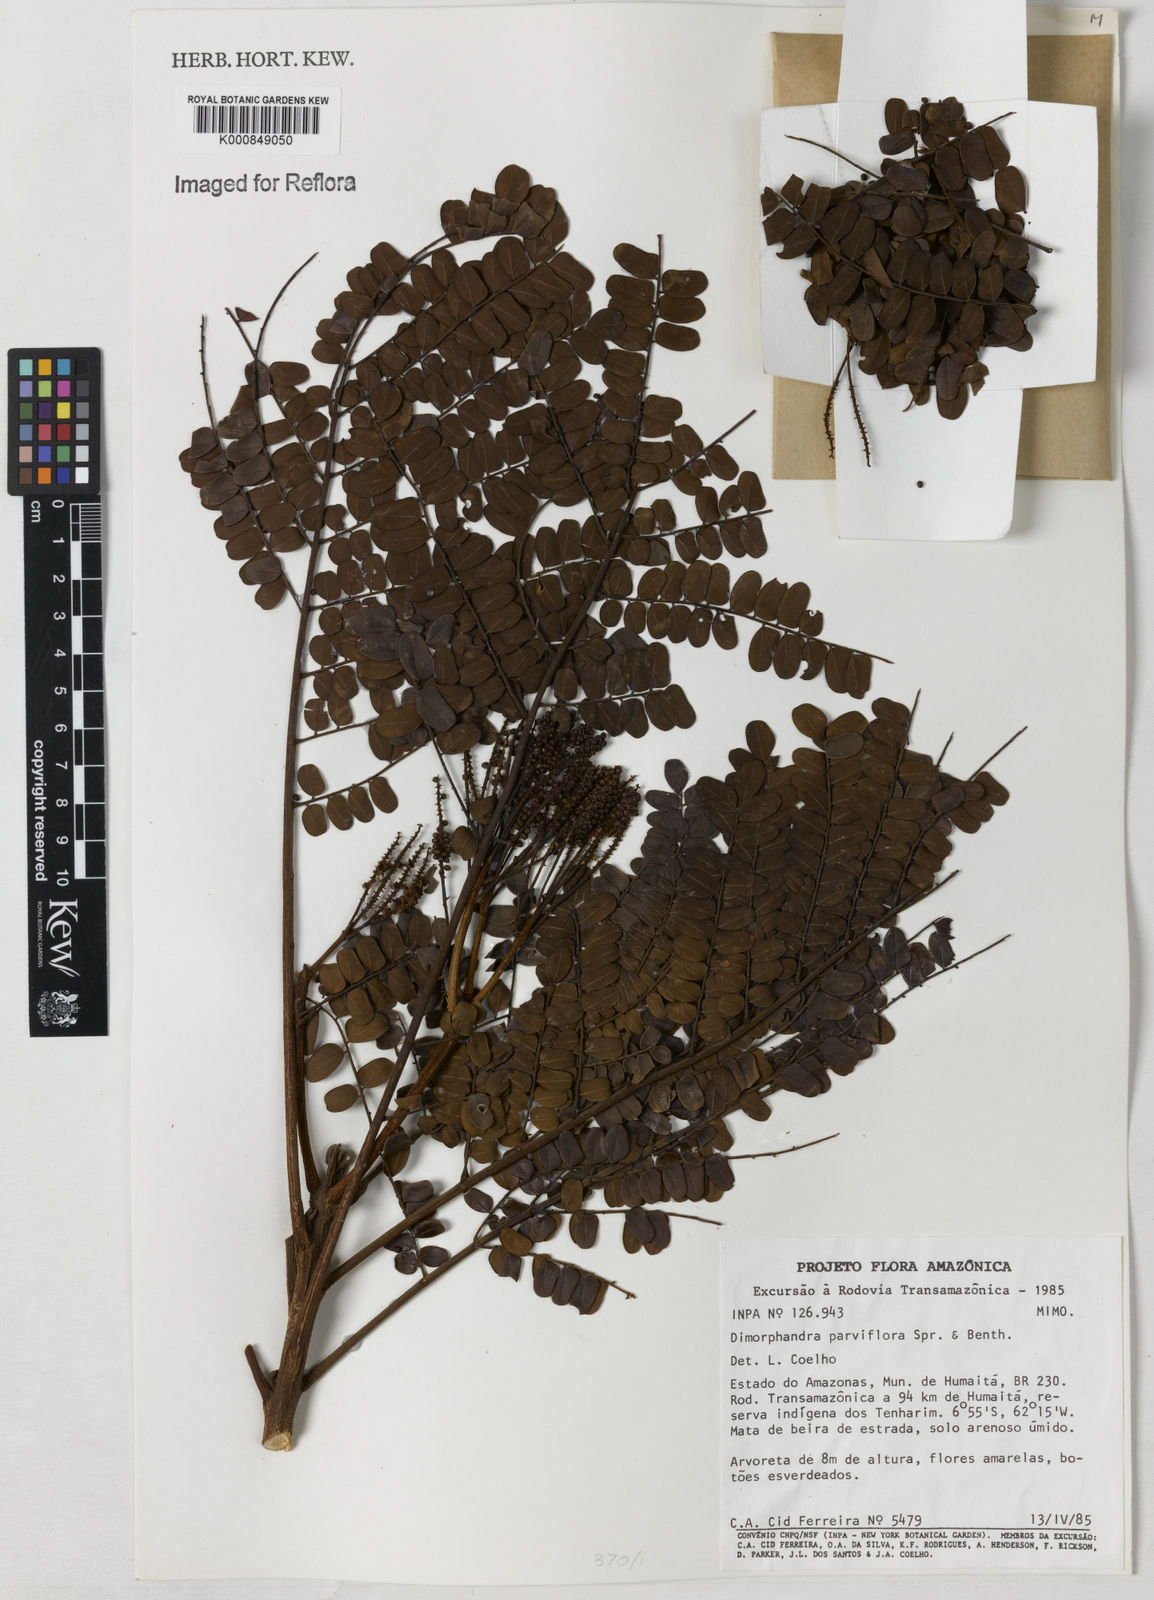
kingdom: Plantae
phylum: Tracheophyta
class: Magnoliopsida
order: Fabales
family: Fabaceae
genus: Dimorphandra
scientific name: Dimorphandra parviflora
